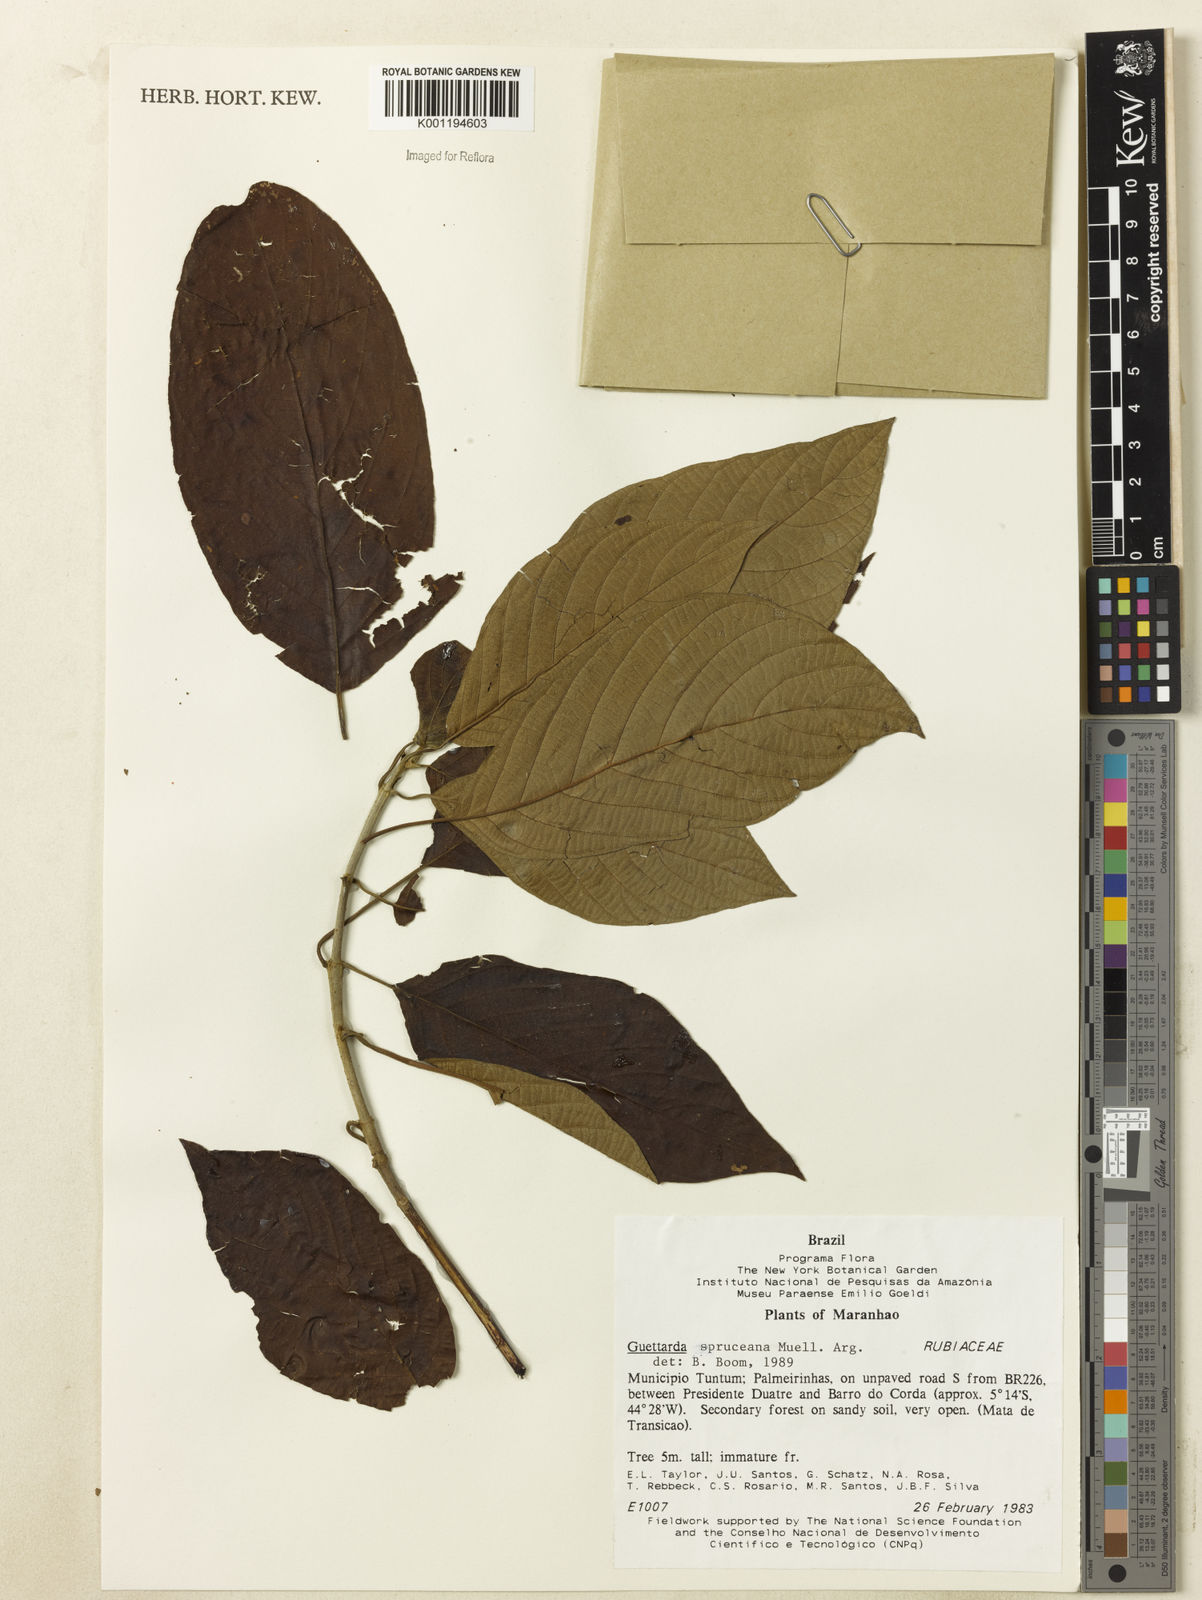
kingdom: Plantae
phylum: Tracheophyta
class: Magnoliopsida
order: Gentianales
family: Rubiaceae
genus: Guettarda
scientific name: Guettarda
